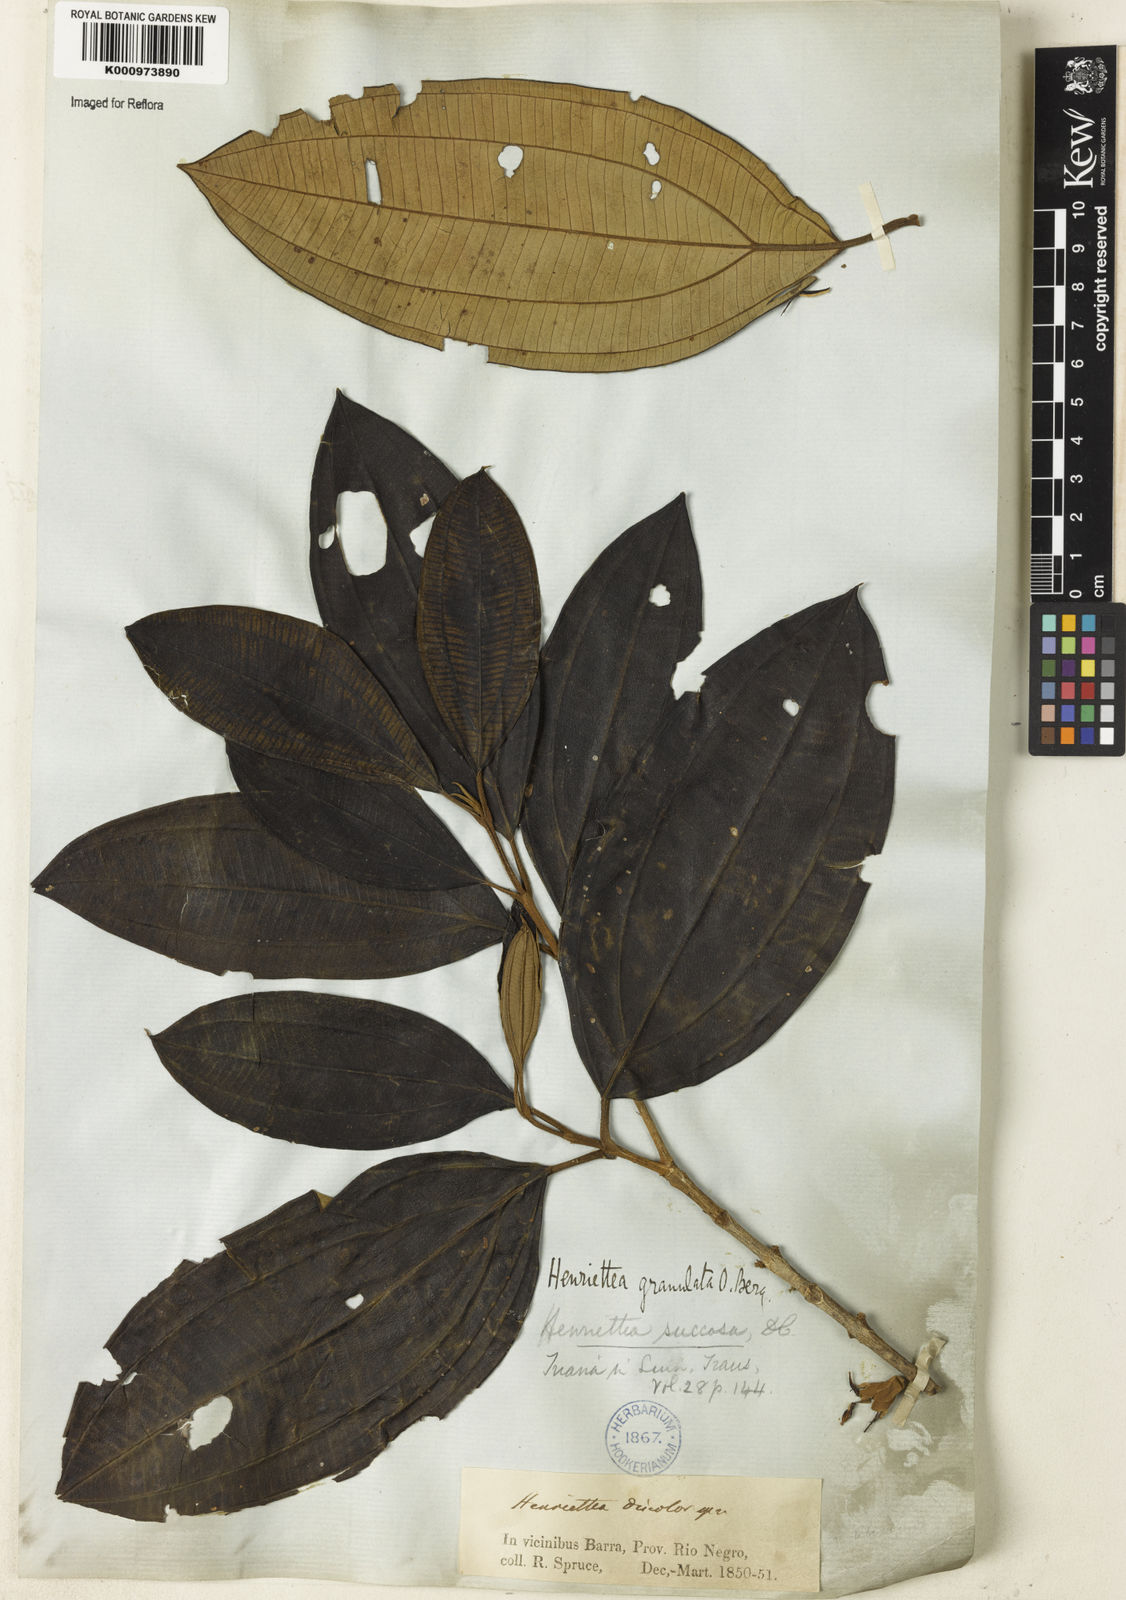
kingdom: Plantae
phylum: Tracheophyta
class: Magnoliopsida
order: Myrtales
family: Melastomataceae
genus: Henriettea
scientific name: Henriettea spruceana
